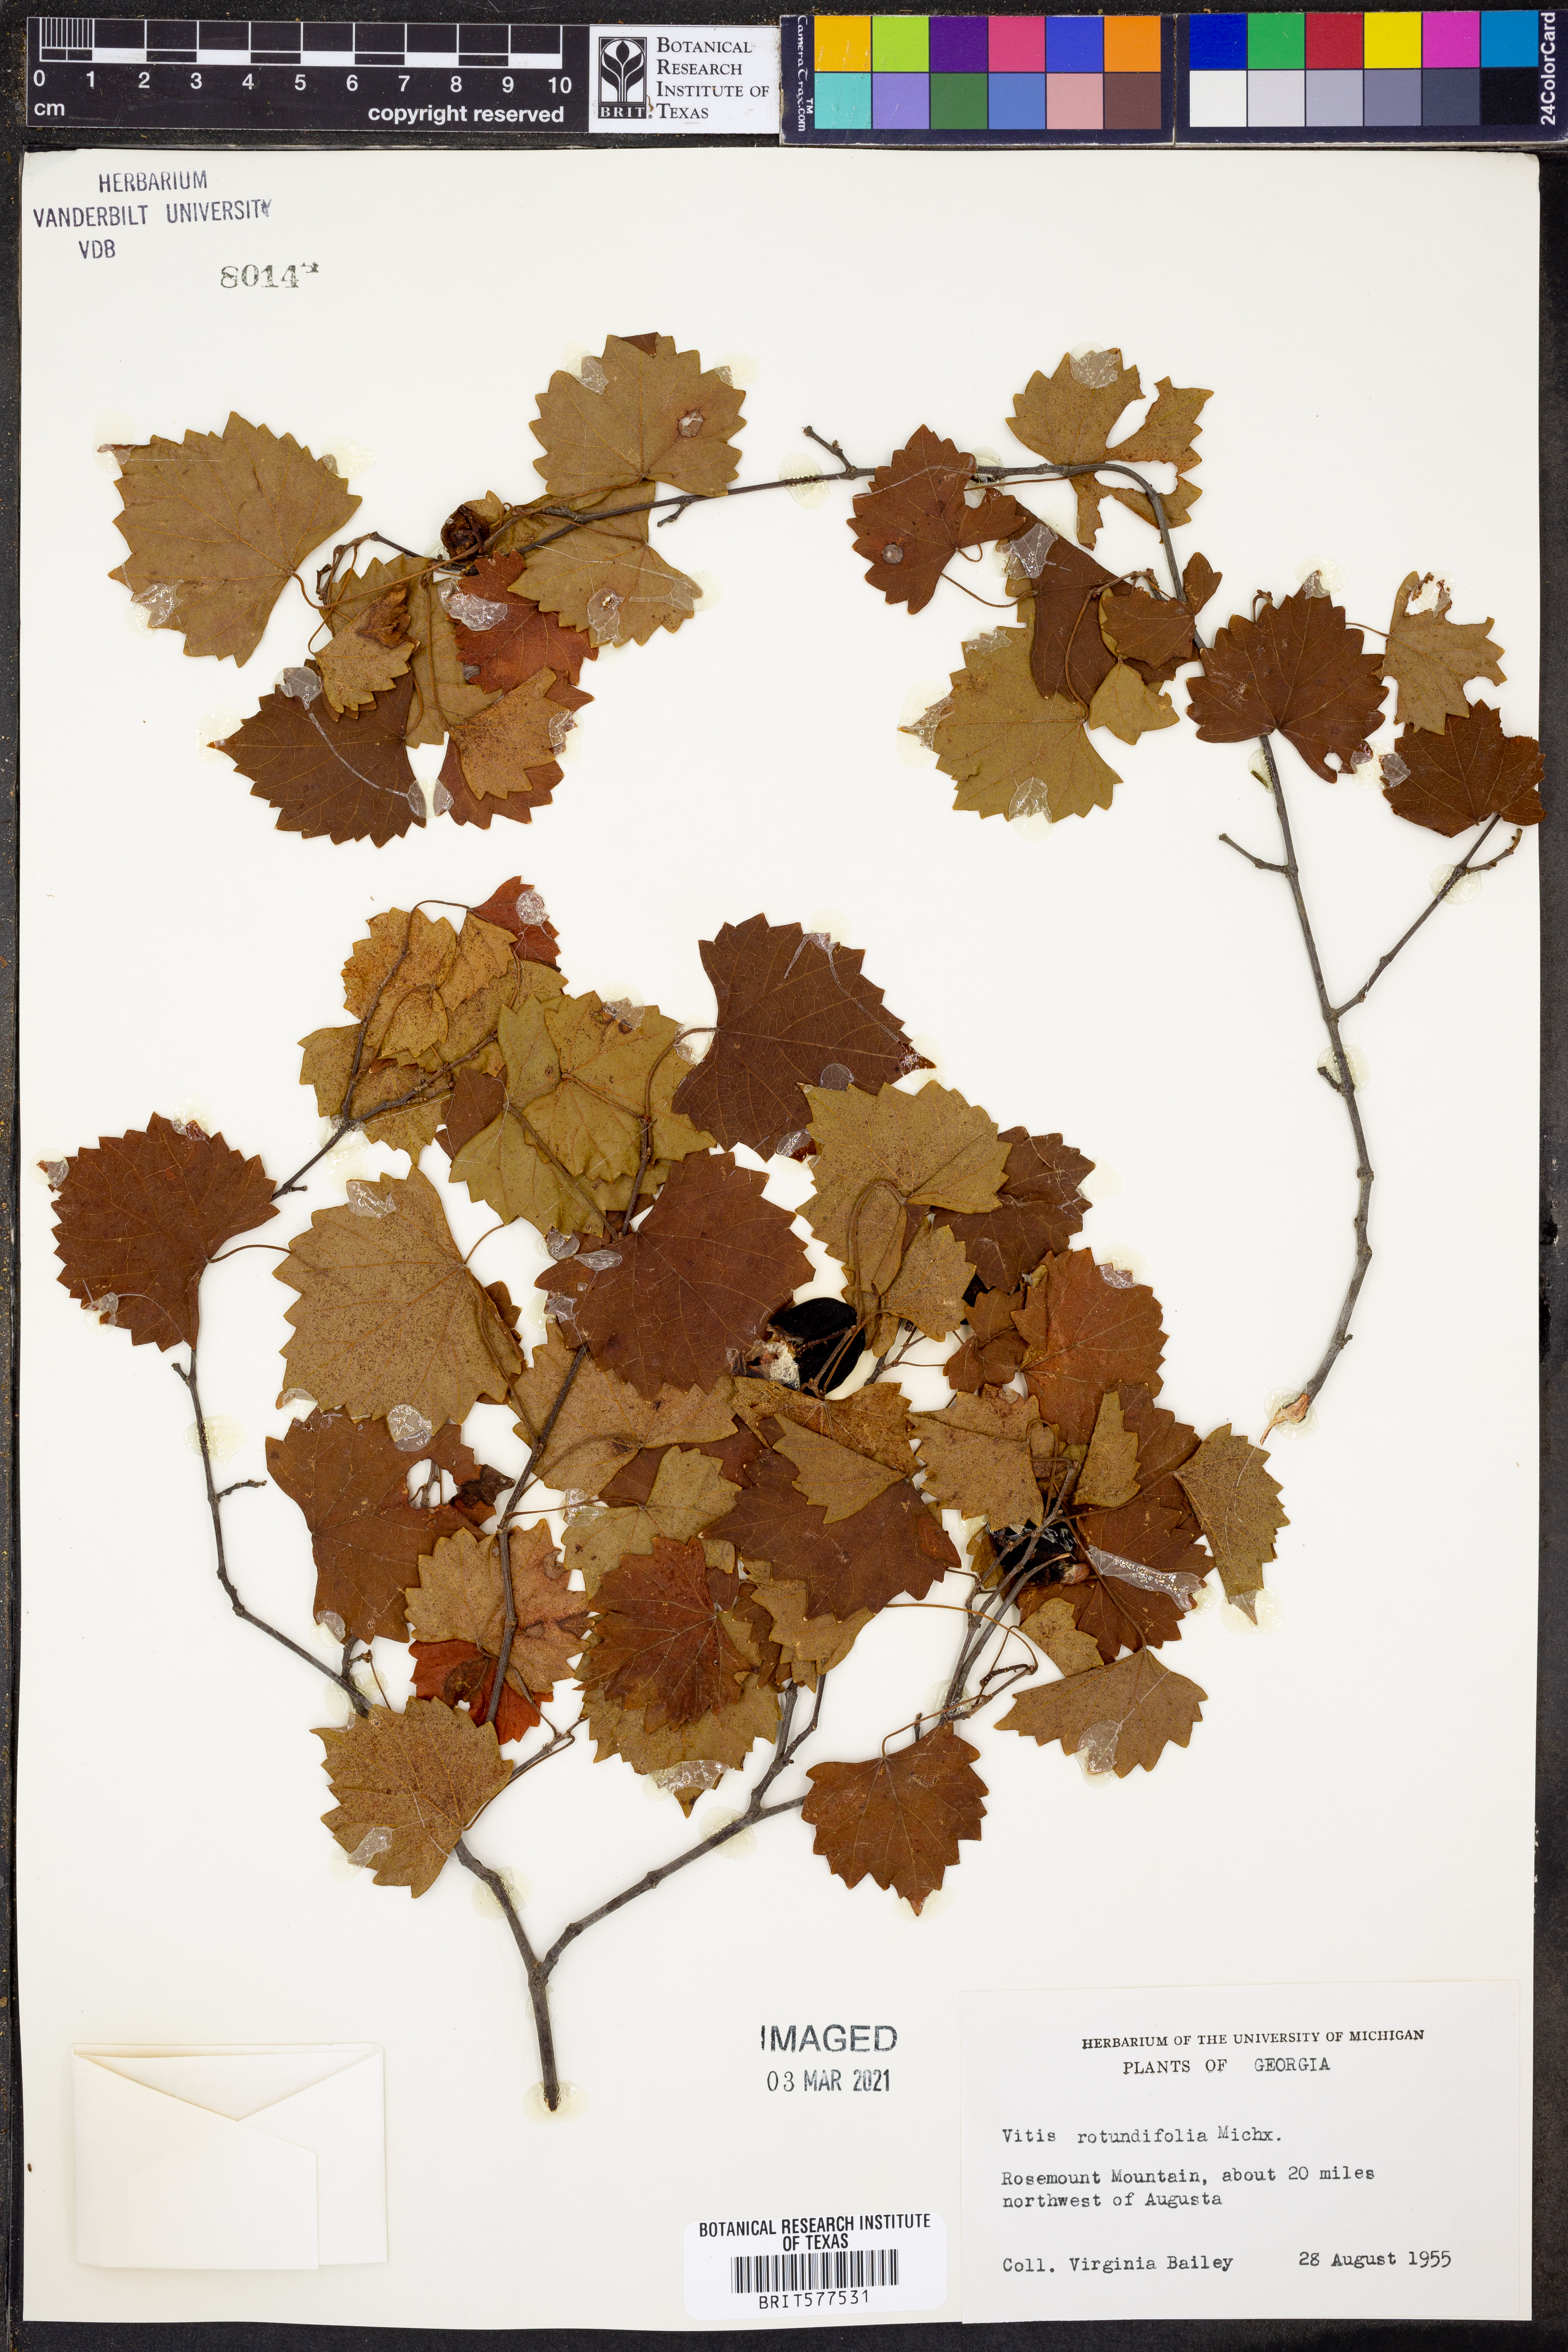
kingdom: Plantae
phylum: Tracheophyta
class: Magnoliopsida
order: Vitales
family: Vitaceae
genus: Vitis
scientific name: Vitis rotundifolia
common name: Muscadine grape
